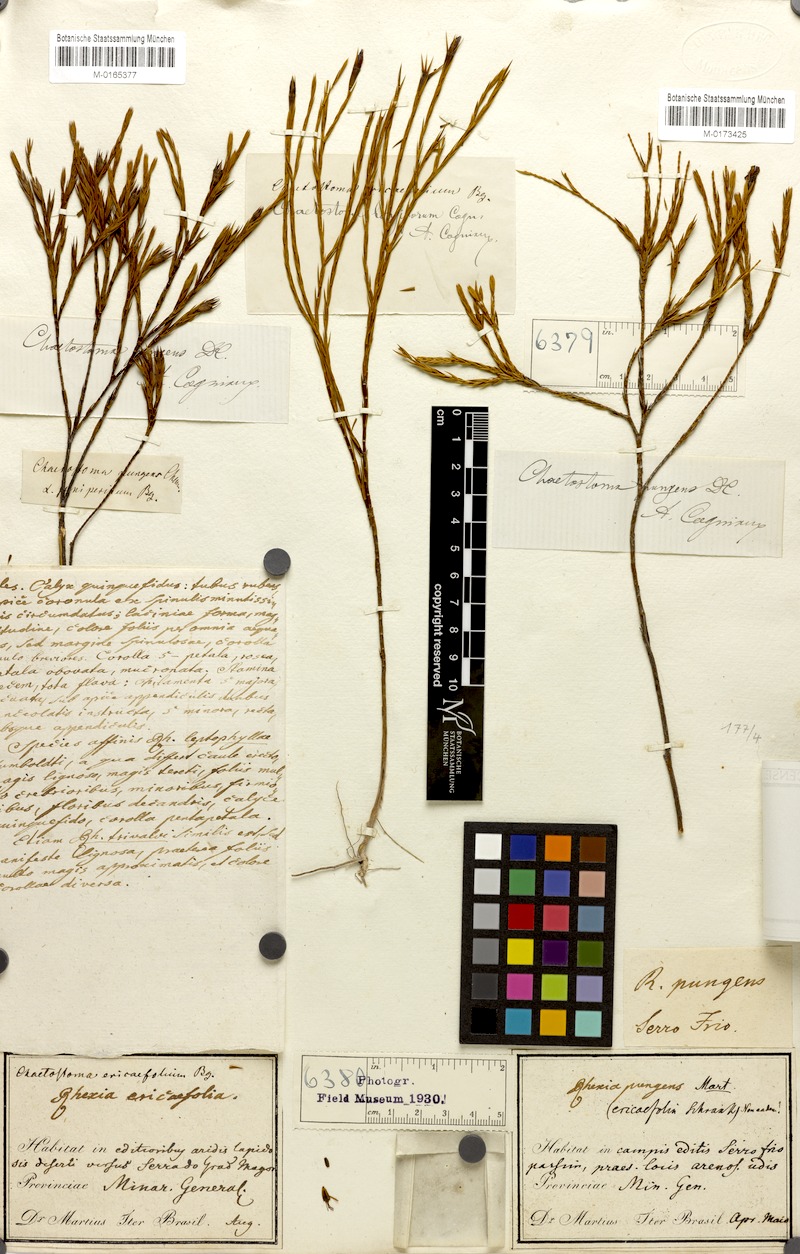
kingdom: Plantae
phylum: Tracheophyta
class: Magnoliopsida
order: Myrtales
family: Melastomataceae
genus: Microlicia
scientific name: Microlicia armata
